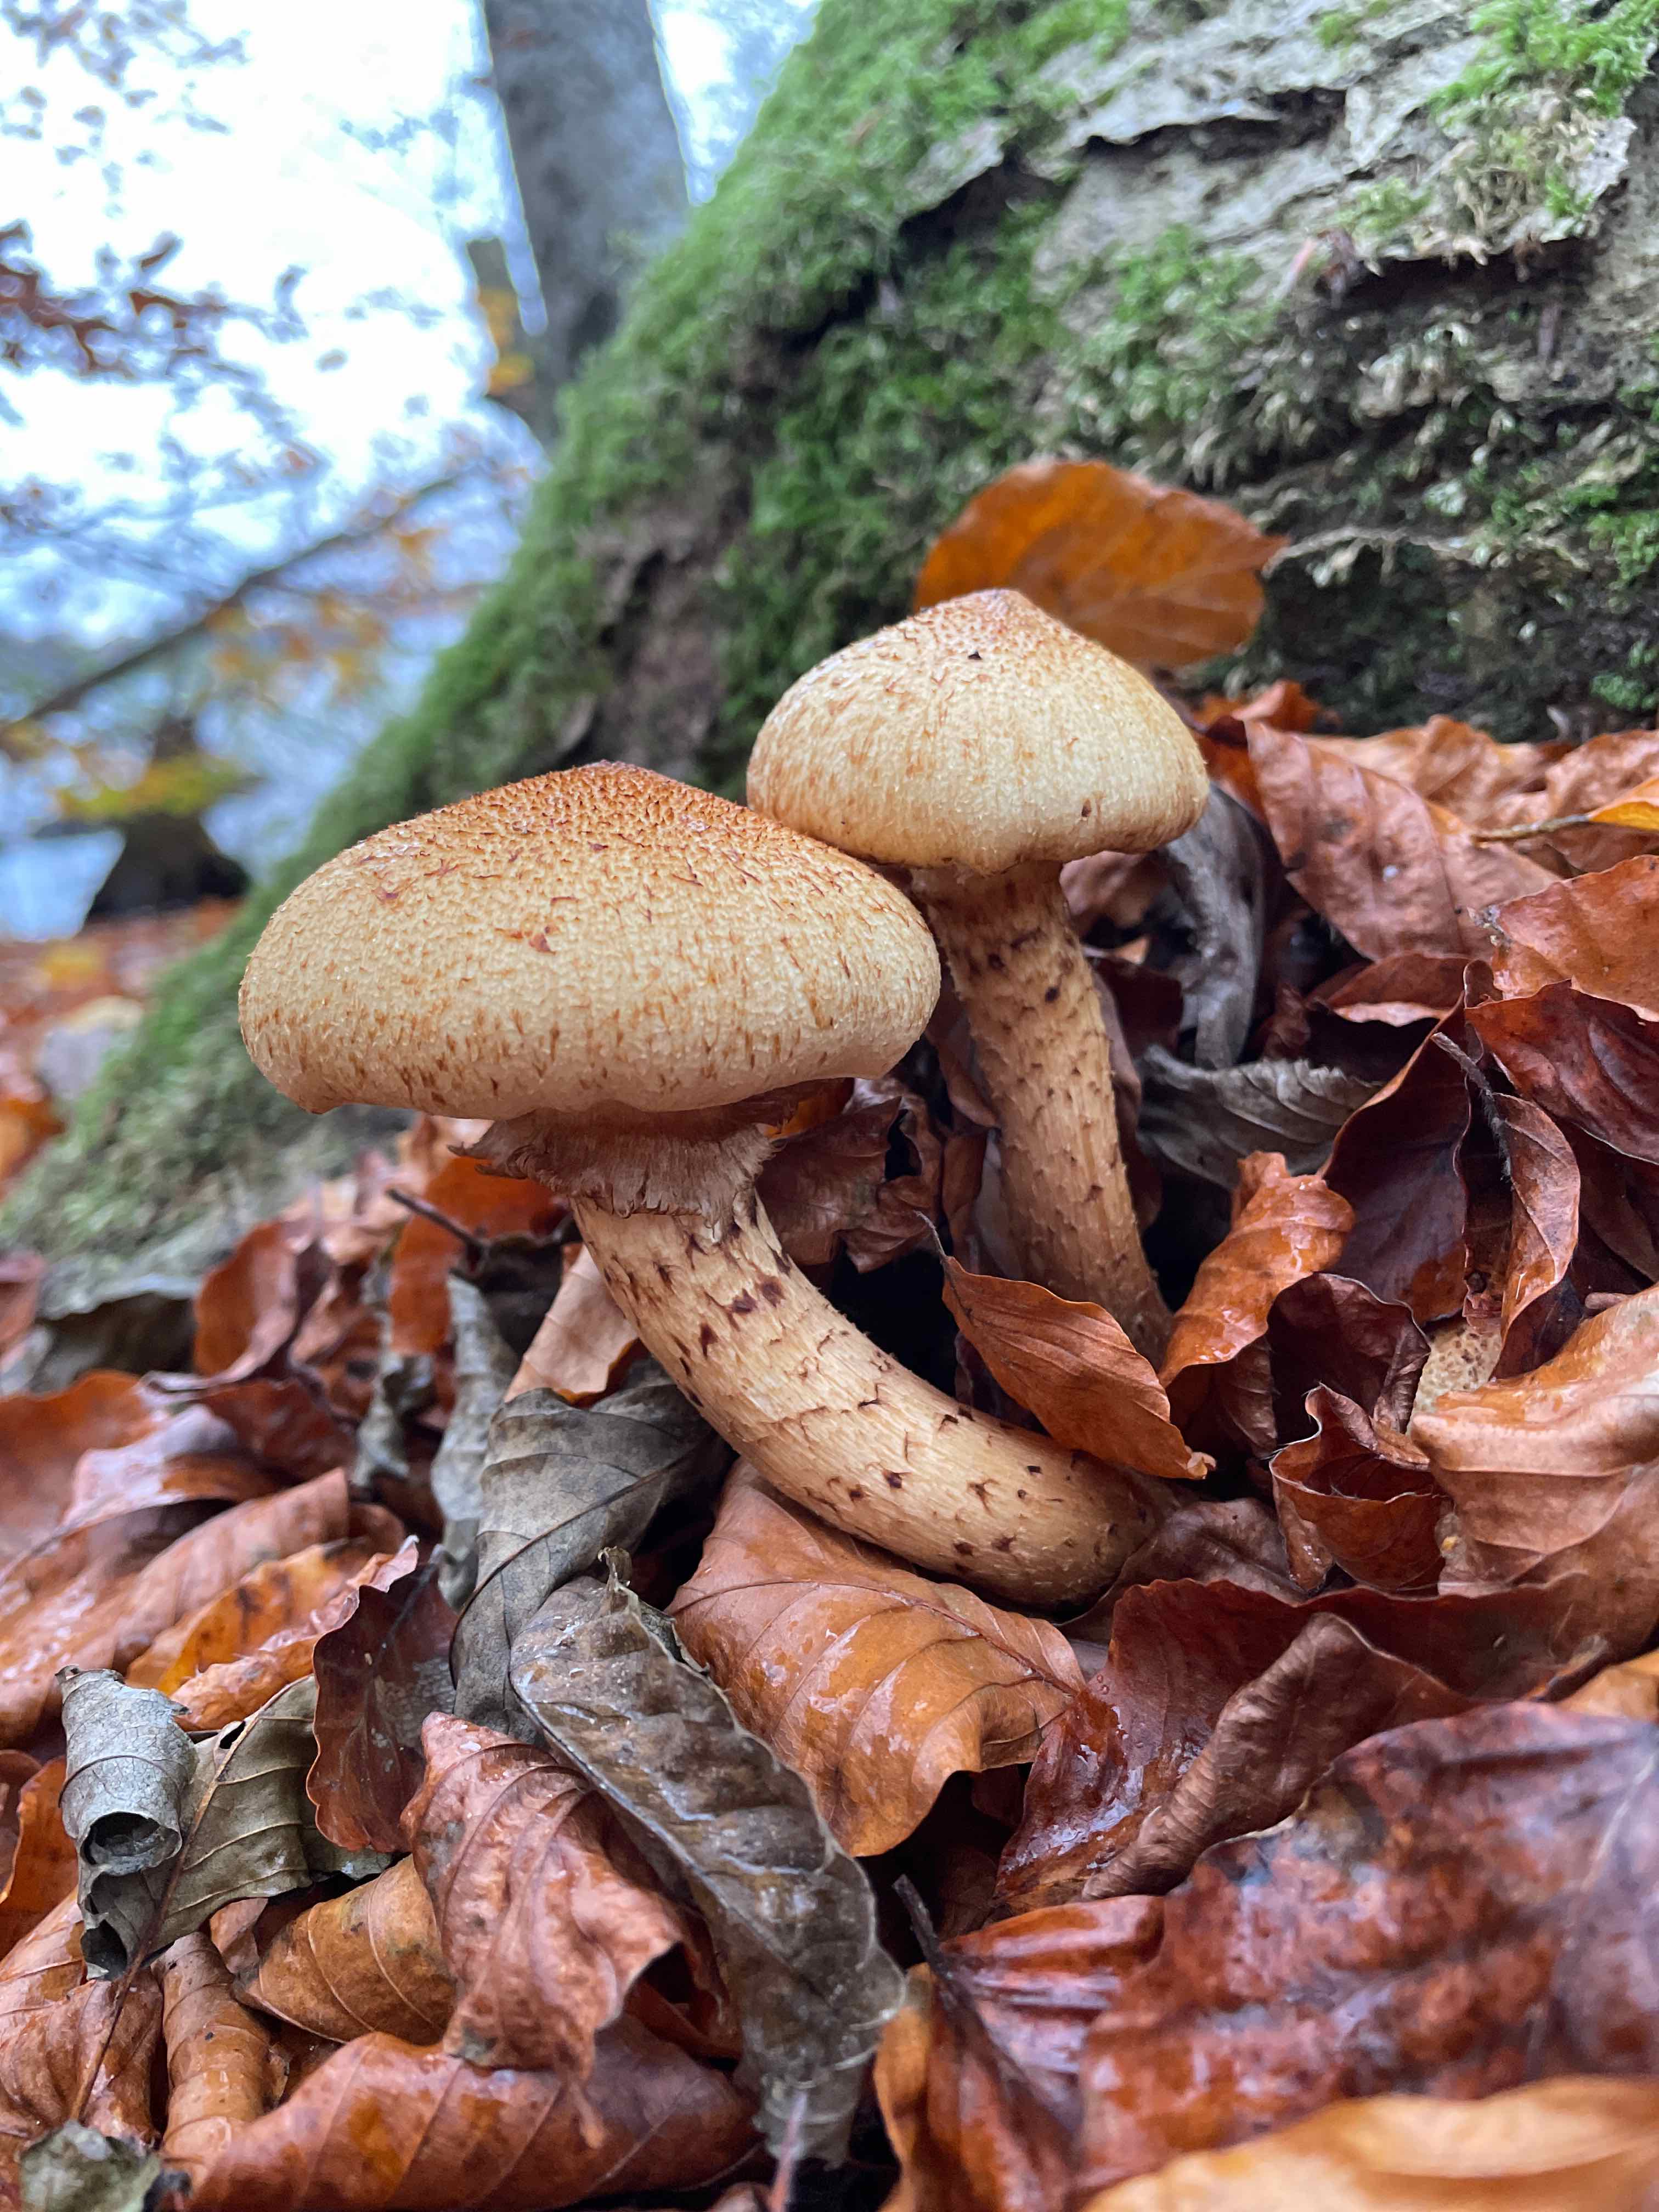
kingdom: Fungi
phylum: Basidiomycota
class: Agaricomycetes
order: Agaricales
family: Strophariaceae
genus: Pholiota
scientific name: Pholiota squarrosa
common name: krumskællet skælhat
